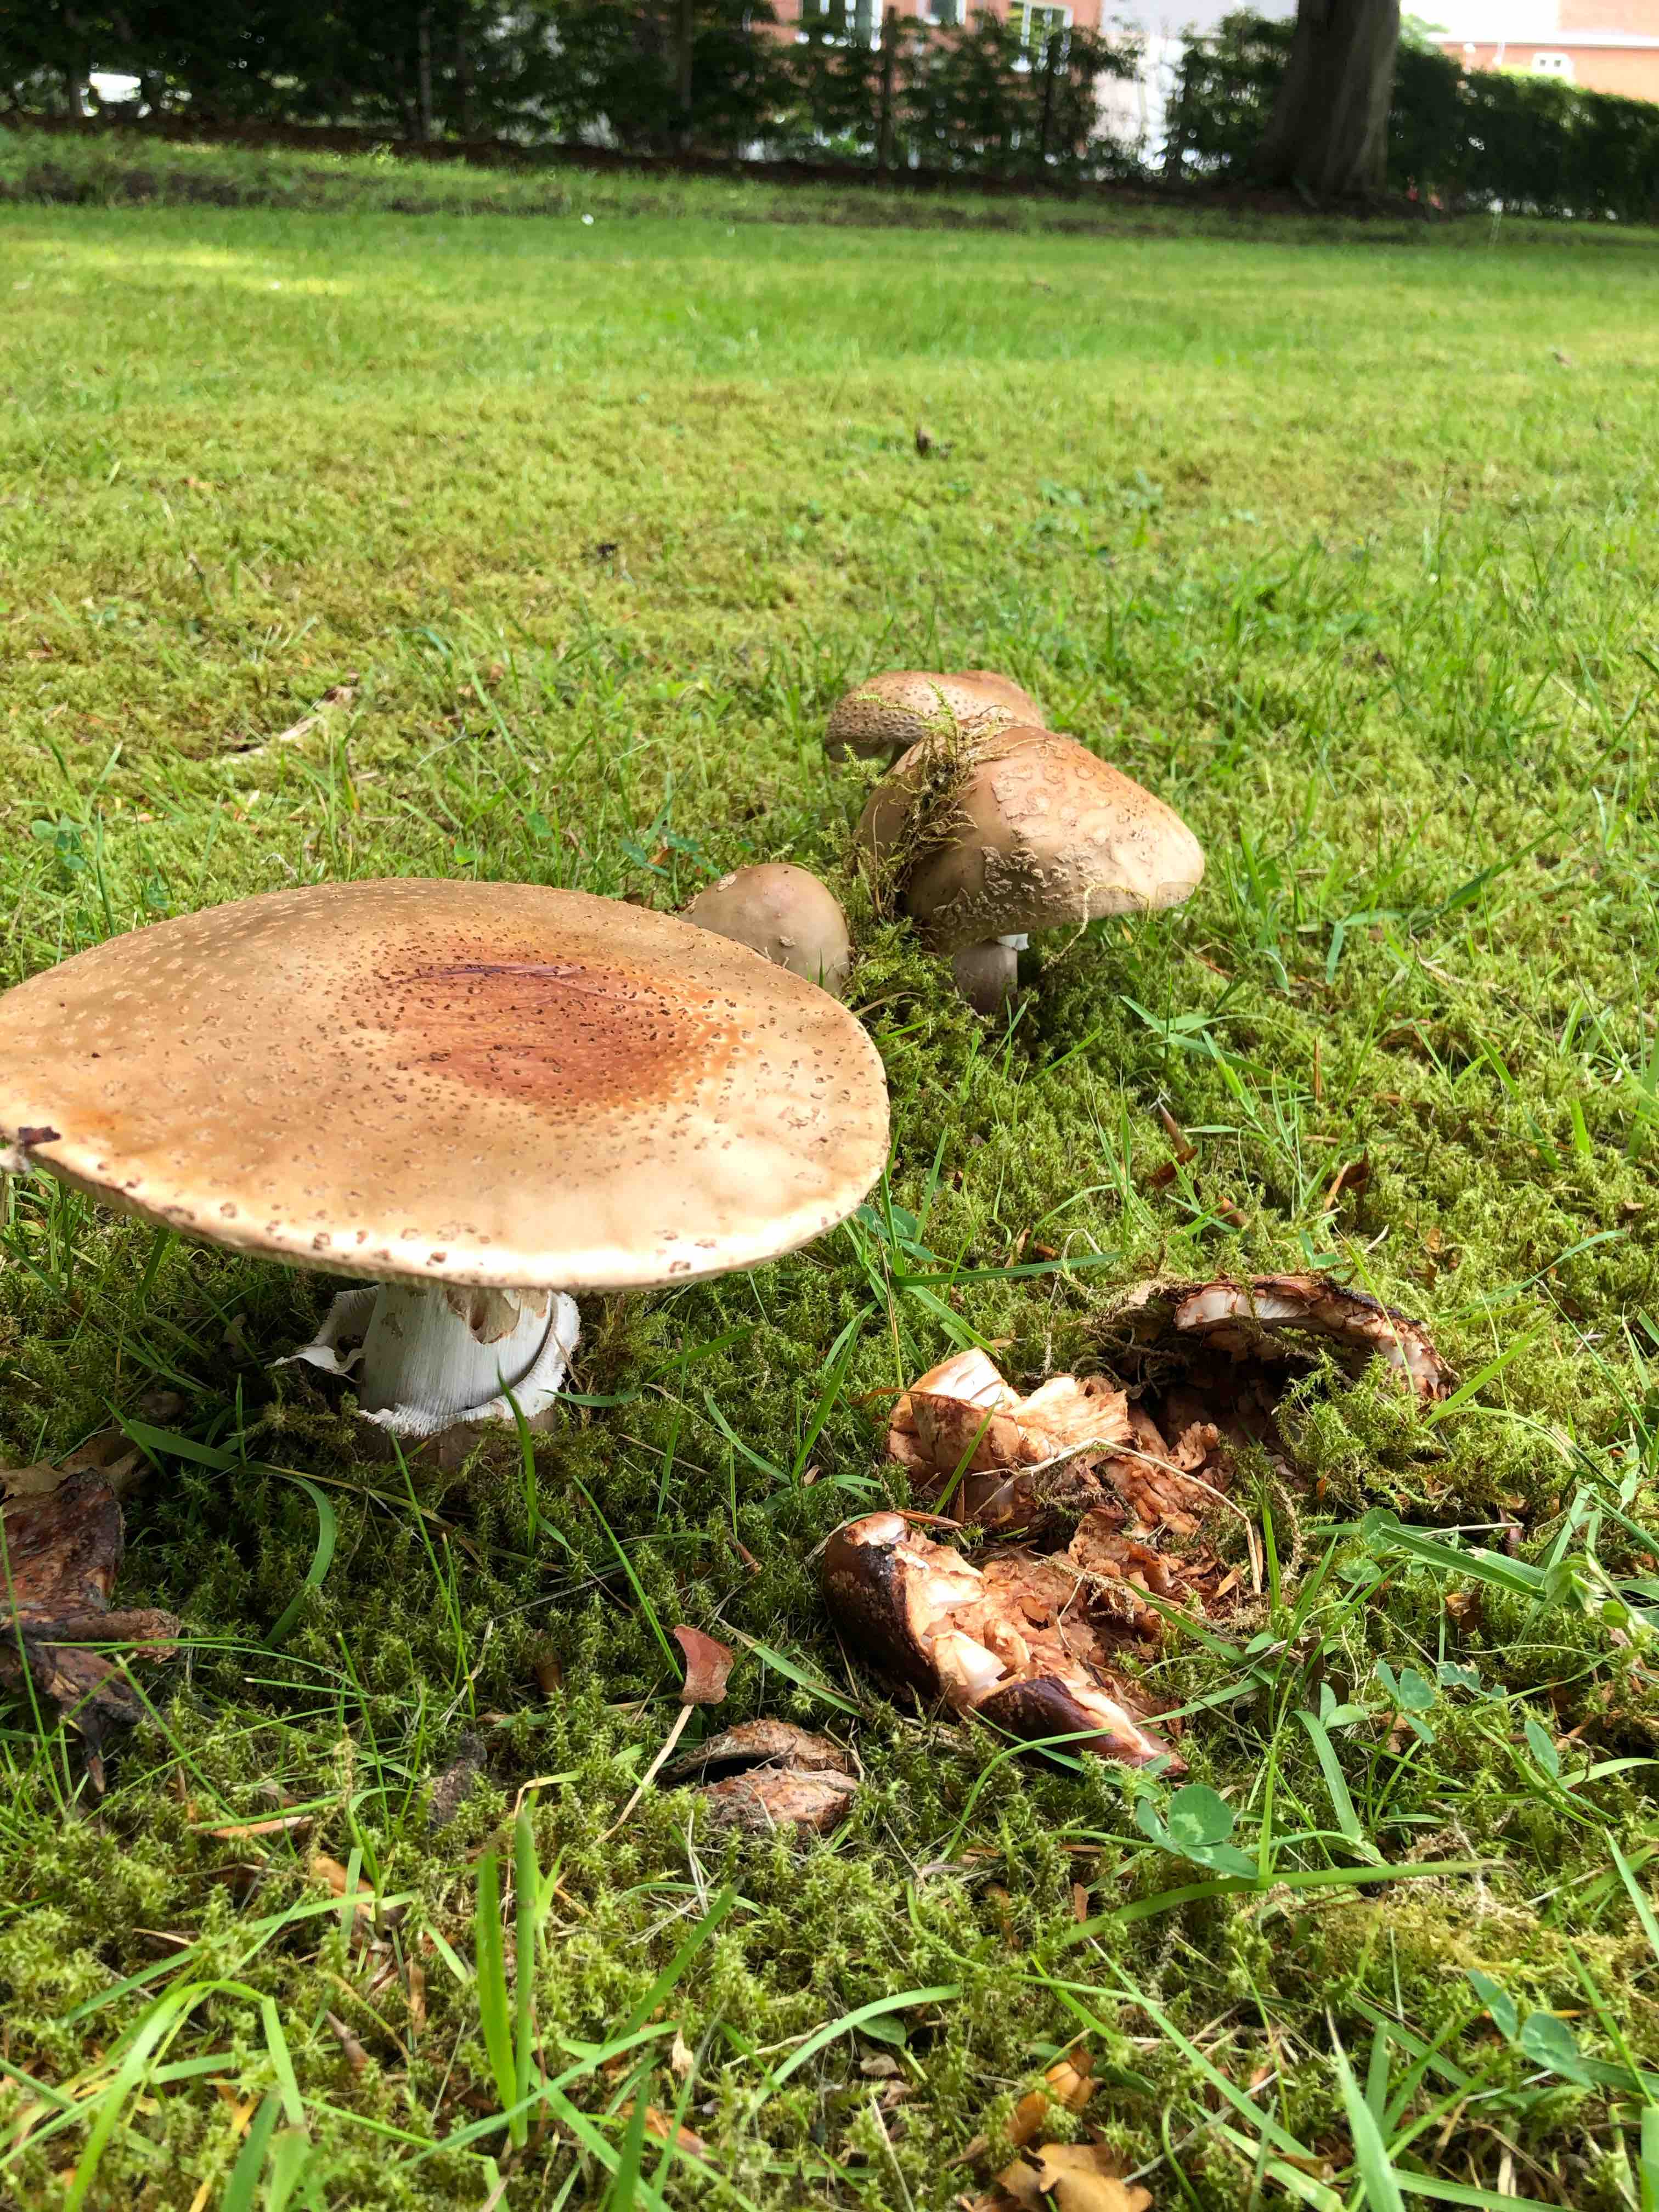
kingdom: Fungi
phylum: Basidiomycota
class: Agaricomycetes
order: Agaricales
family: Amanitaceae
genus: Amanita
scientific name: Amanita rubescens
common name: rødmende fluesvamp
